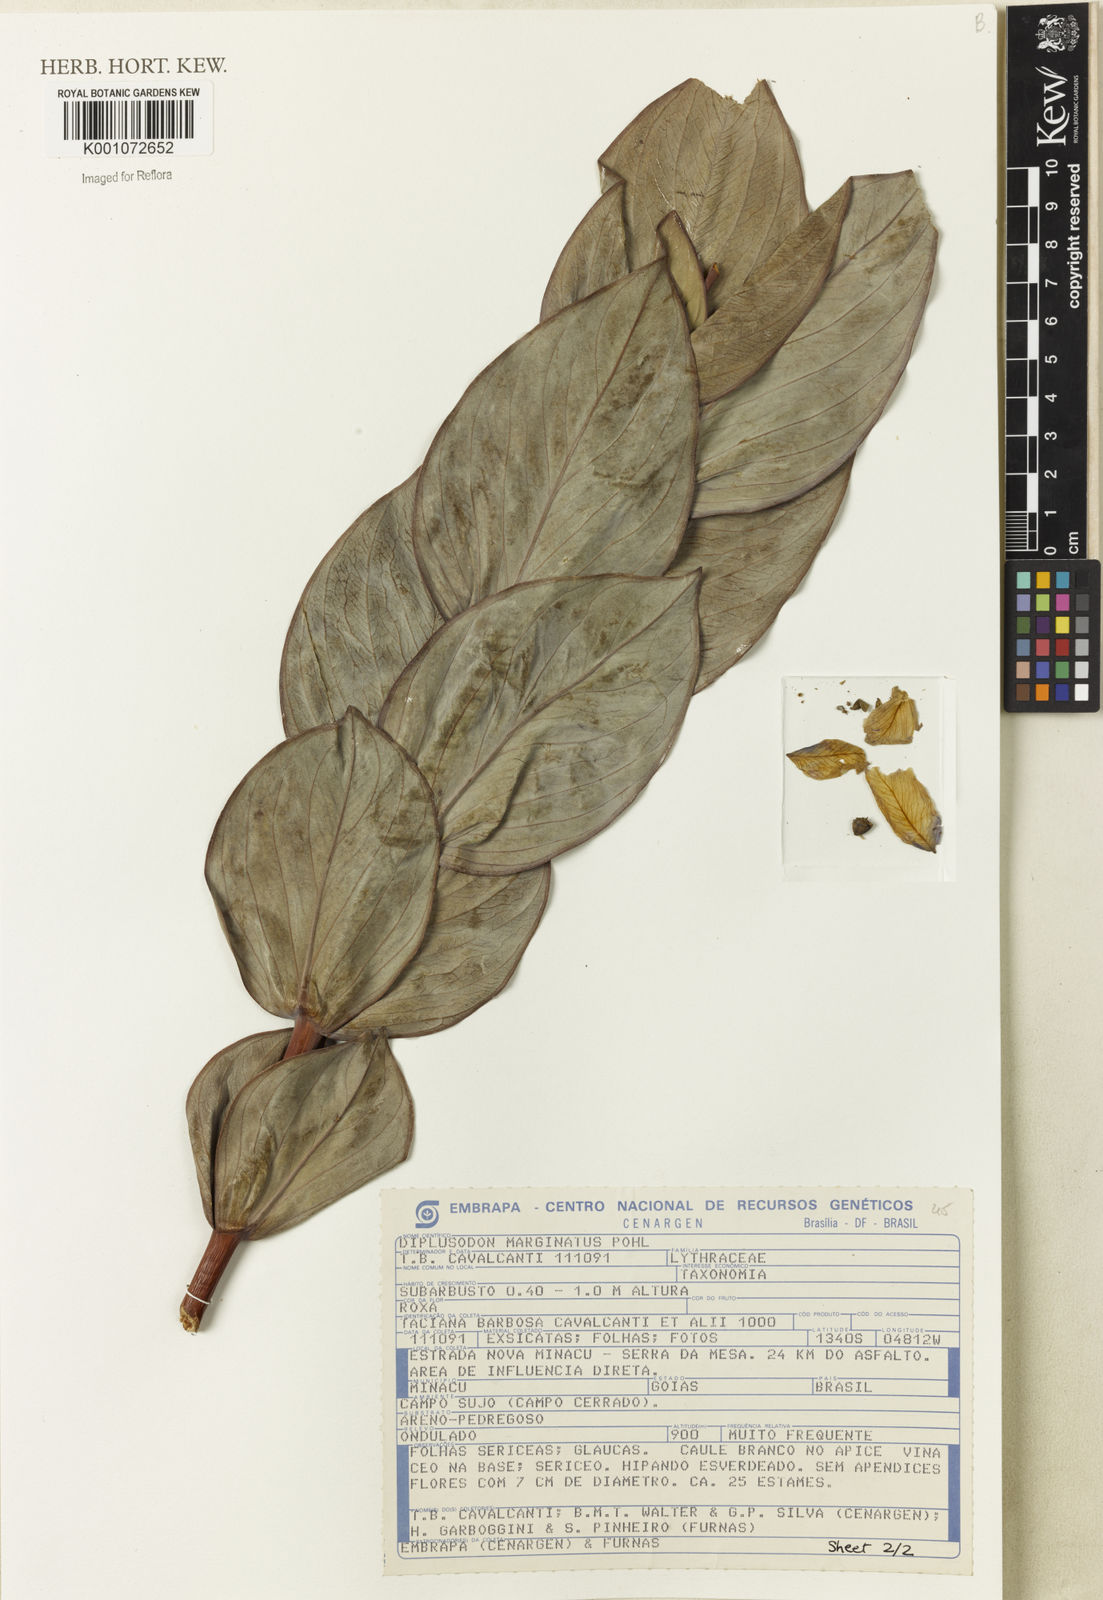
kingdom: Plantae
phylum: Tracheophyta
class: Magnoliopsida
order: Myrtales
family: Lythraceae
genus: Diplusodon
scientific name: Diplusodon marginatus
